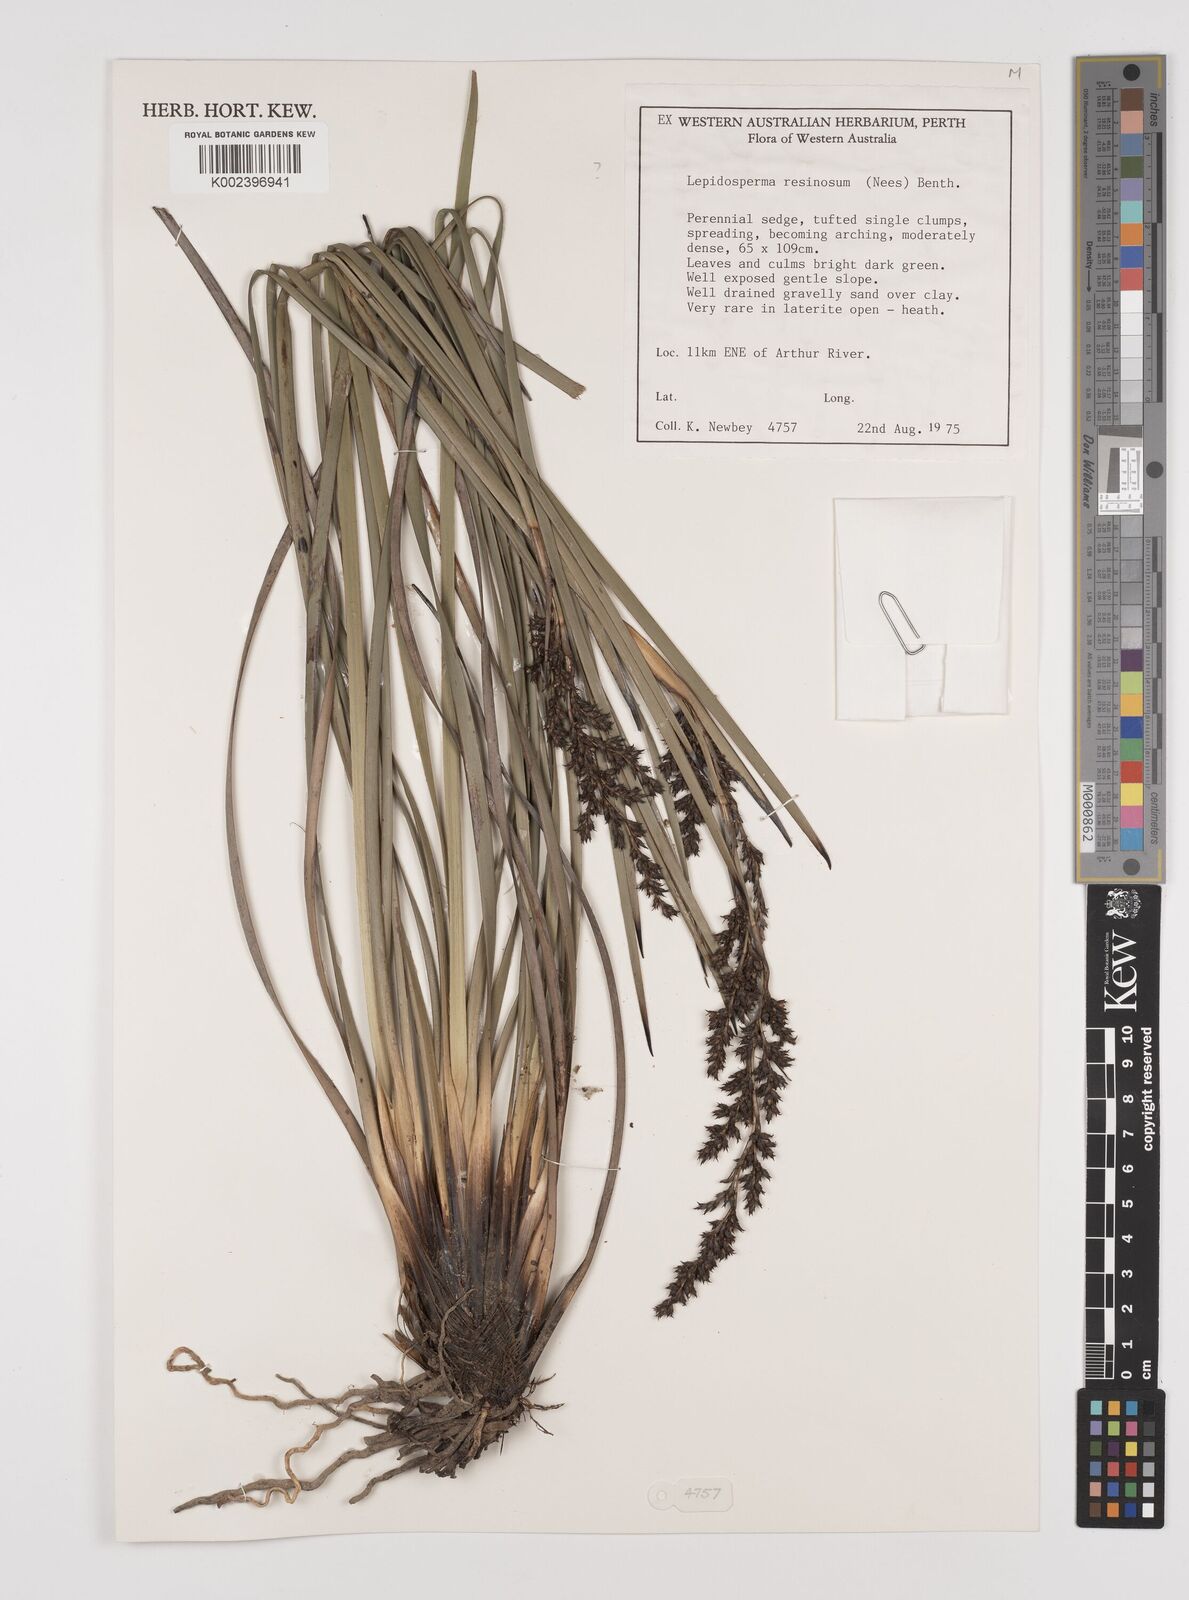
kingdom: Plantae
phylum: Tracheophyta
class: Liliopsida
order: Poales
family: Cyperaceae
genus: Lepidosperma
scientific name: Lepidosperma resinosum
